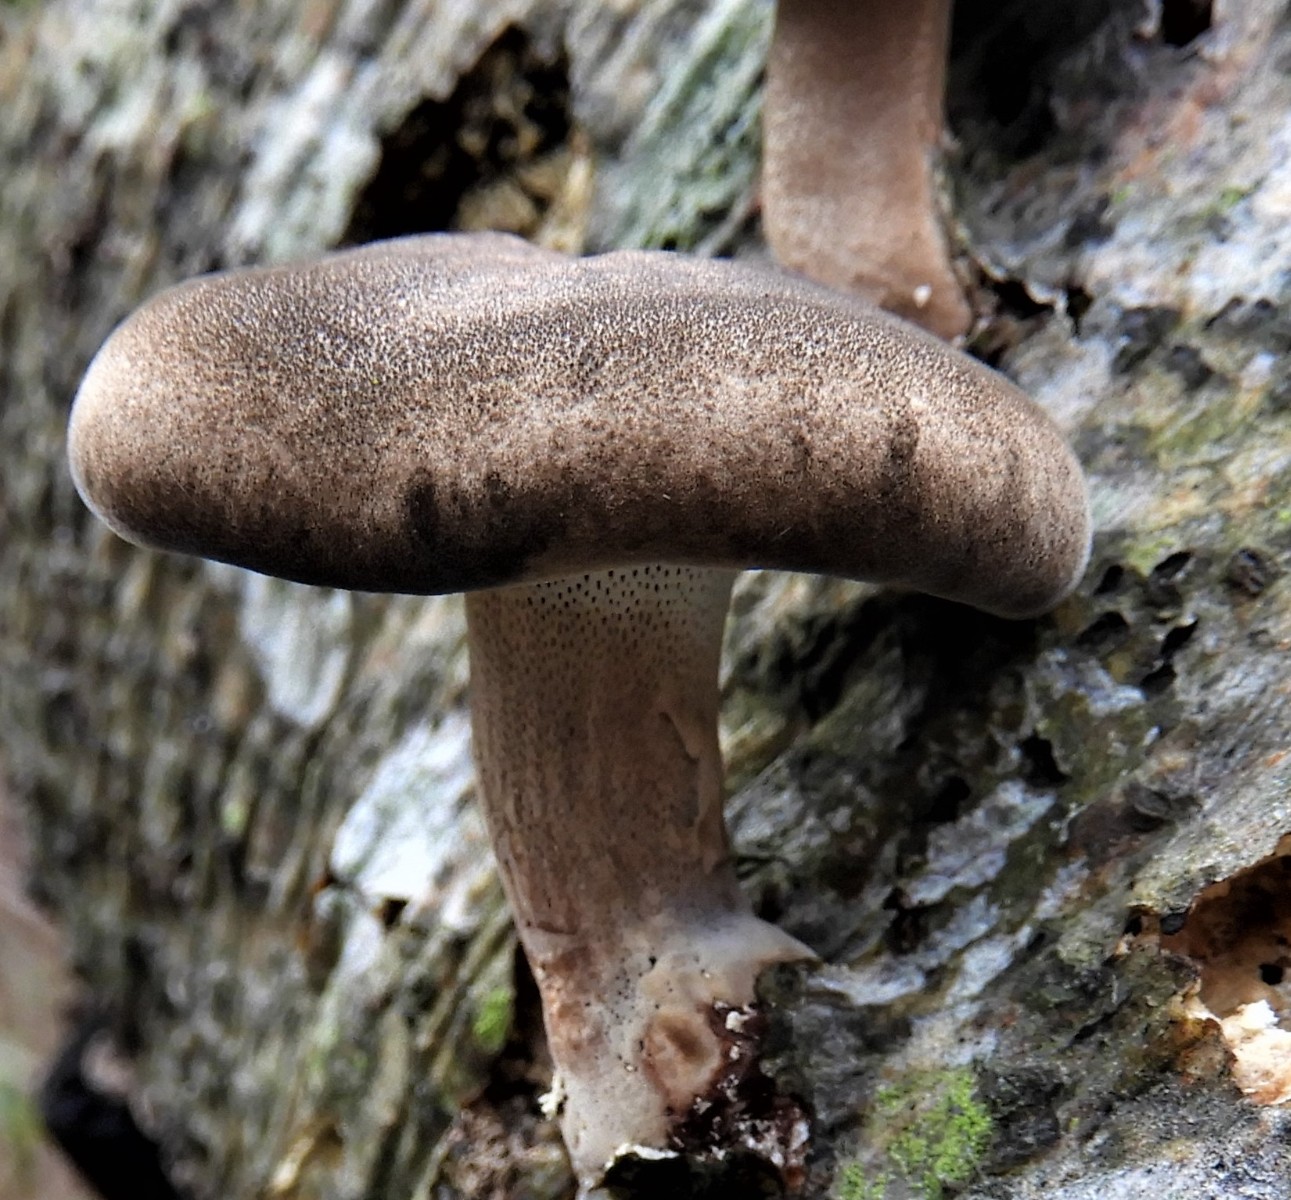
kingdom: Fungi
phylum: Basidiomycota
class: Agaricomycetes
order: Polyporales
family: Polyporaceae
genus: Lentinus
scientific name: Lentinus brumalis
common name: vinter-stilkporesvamp
